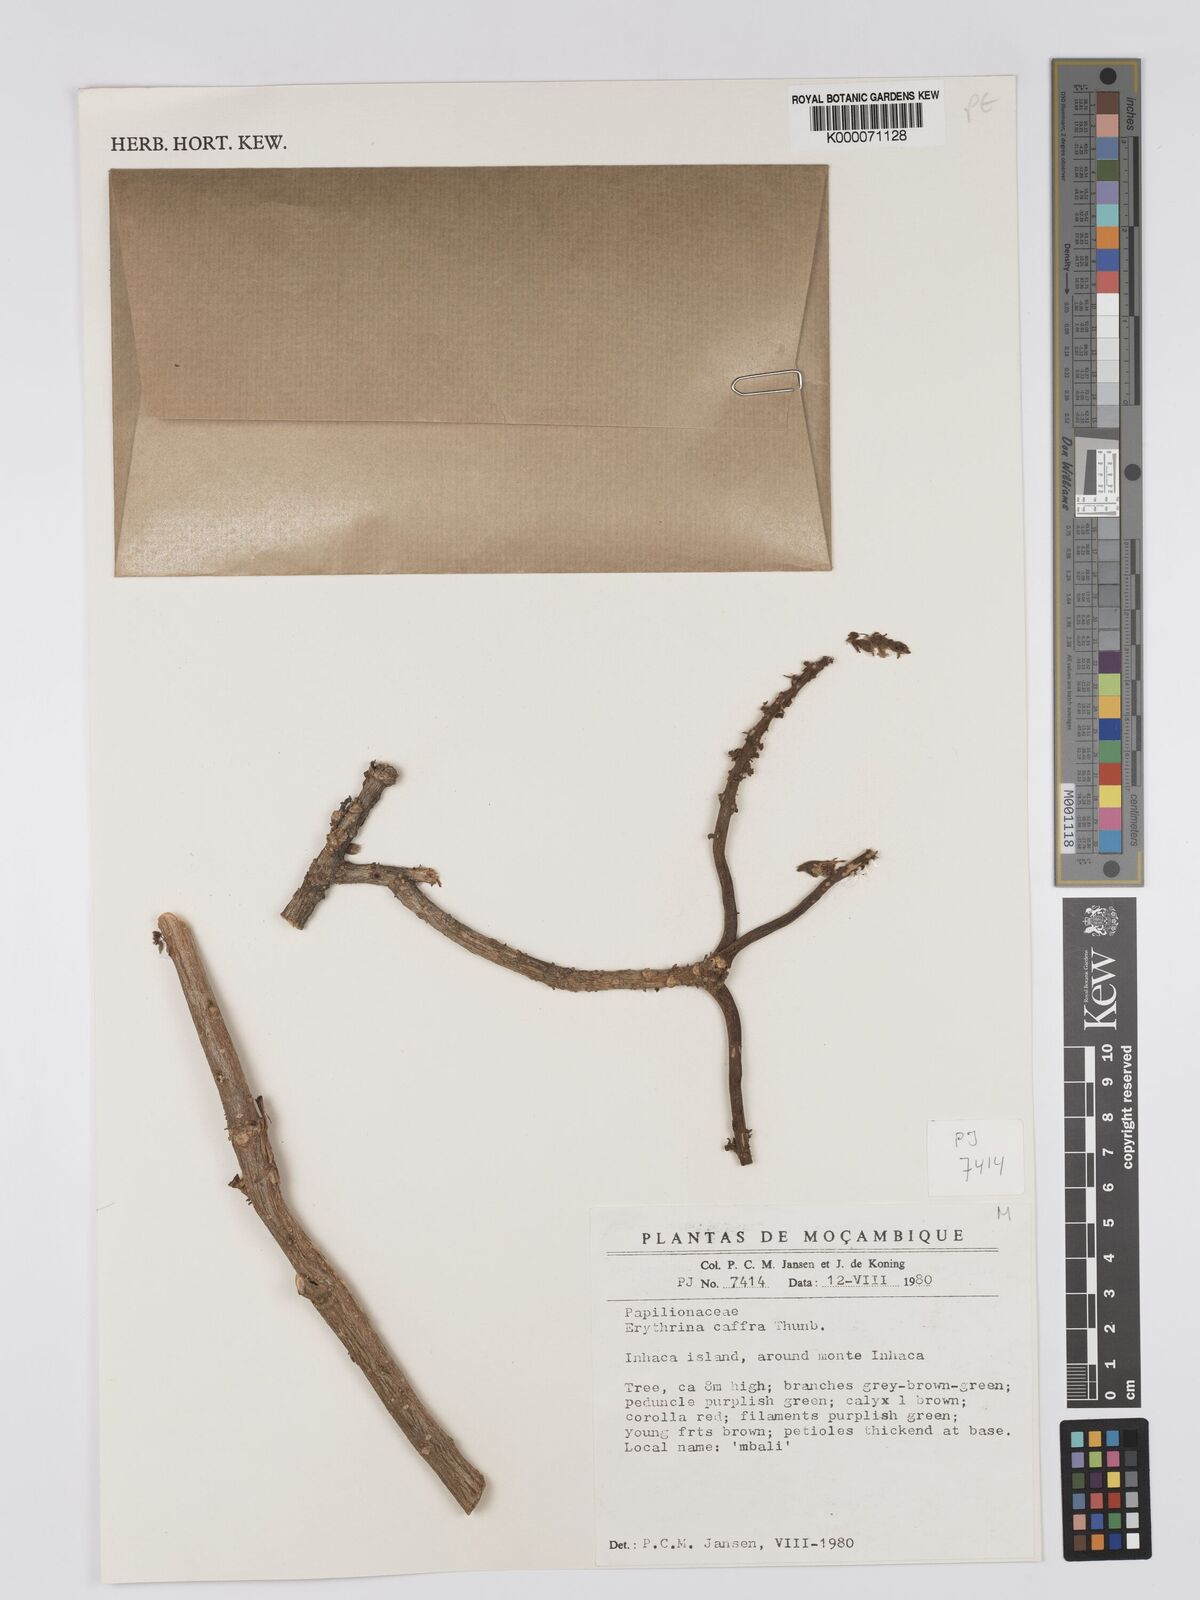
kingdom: Plantae
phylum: Tracheophyta
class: Magnoliopsida
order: Fabales
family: Fabaceae
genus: Erythrina
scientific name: Erythrina caffra
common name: Coast coral tree
